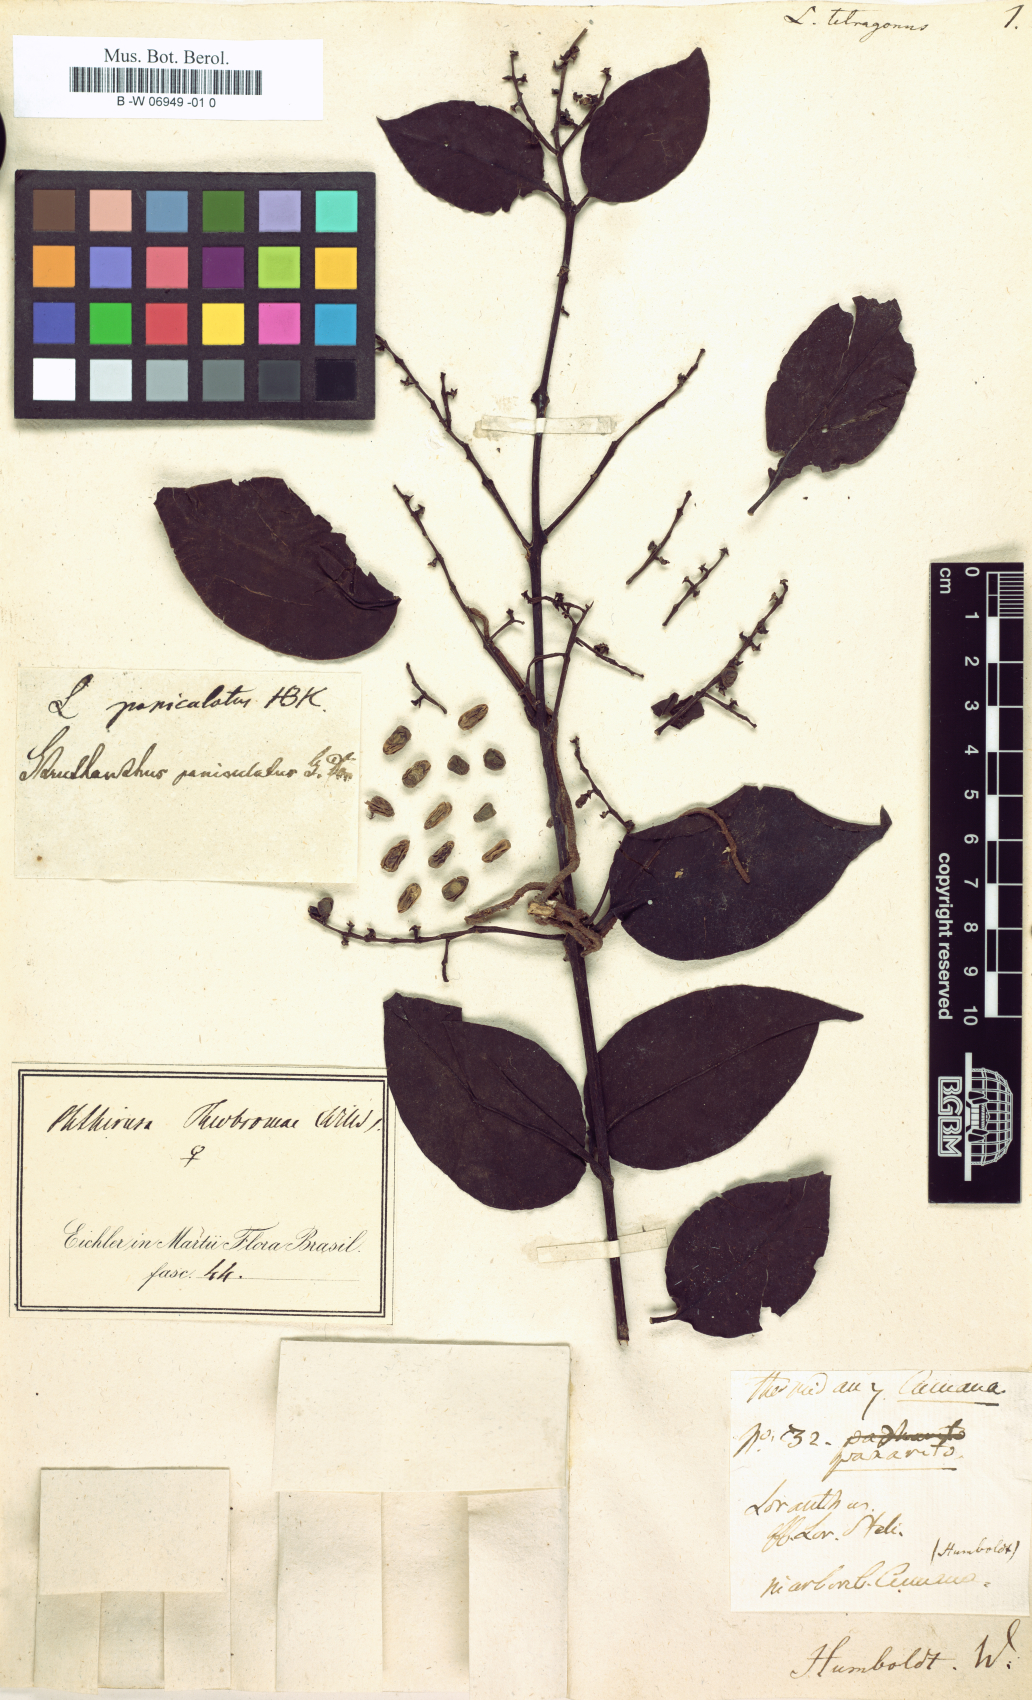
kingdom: Plantae
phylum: Tracheophyta
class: Magnoliopsida
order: Santalales
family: Loranthaceae
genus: Passovia
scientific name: Passovia pedunculata
